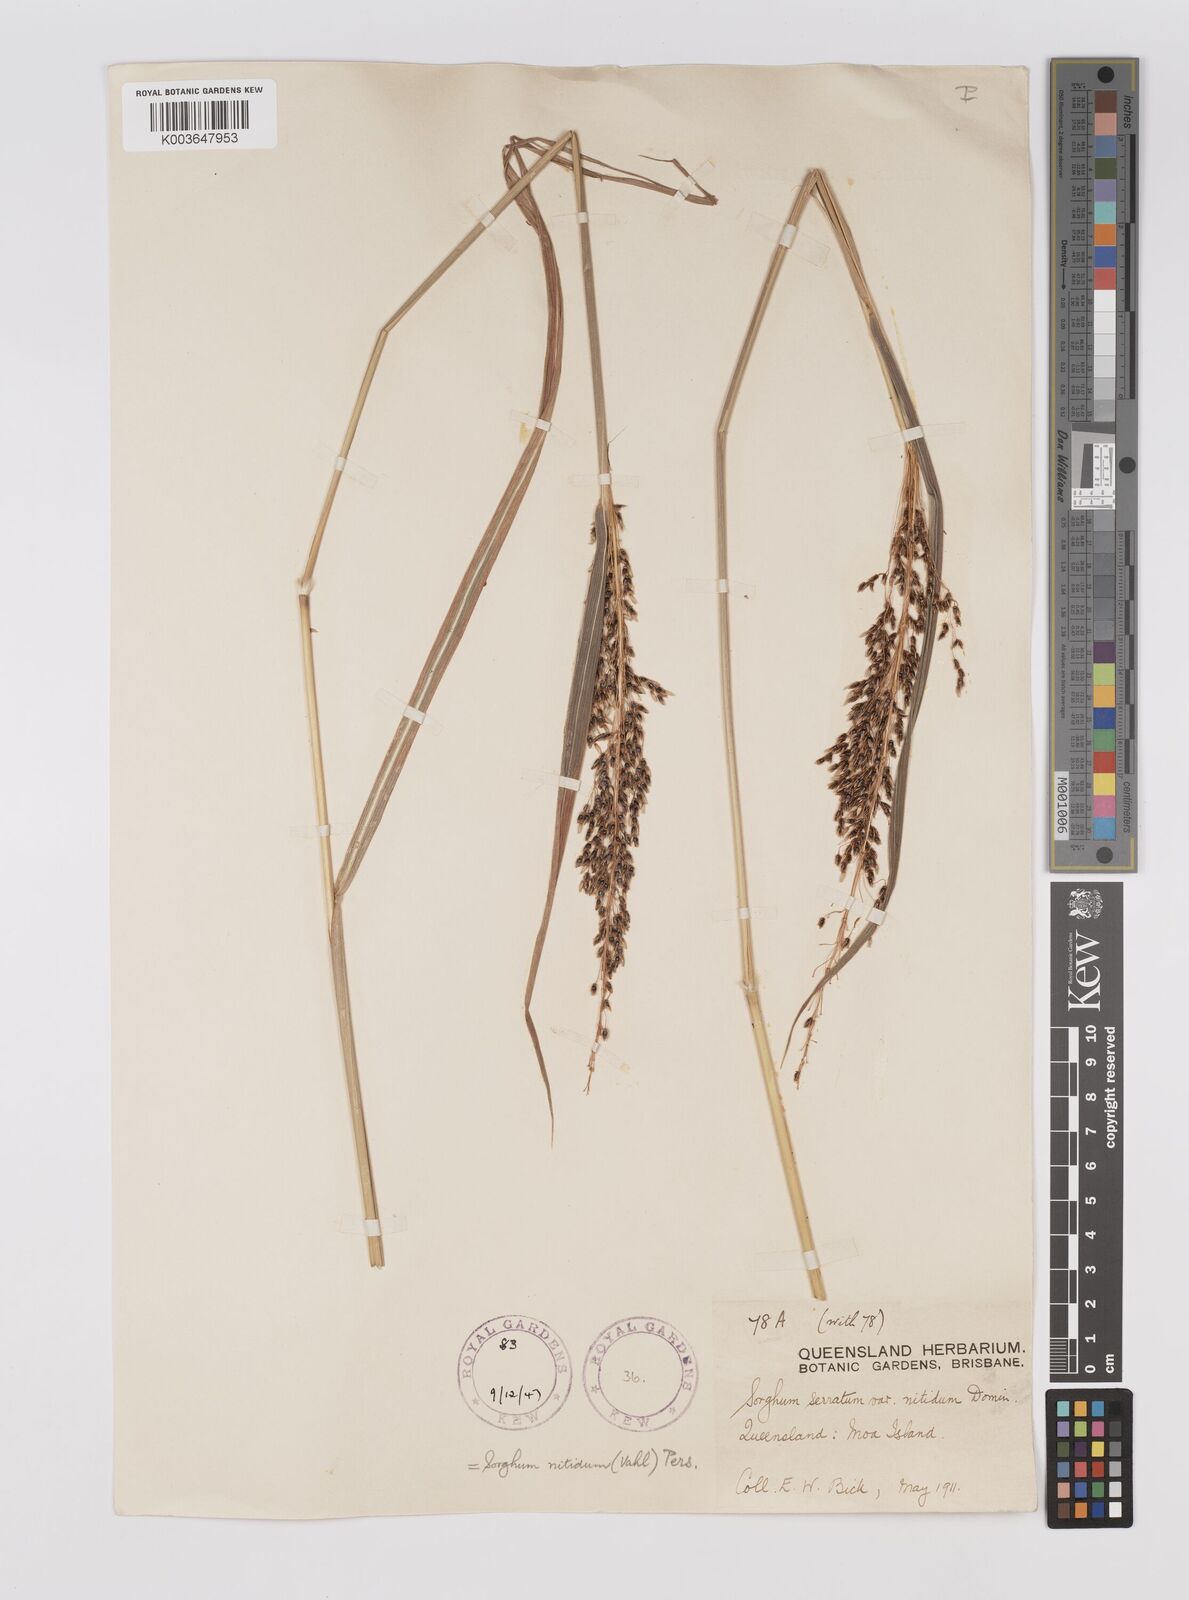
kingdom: Plantae
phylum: Tracheophyta
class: Liliopsida
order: Poales
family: Poaceae
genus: Sorghum
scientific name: Sorghum nitidum
